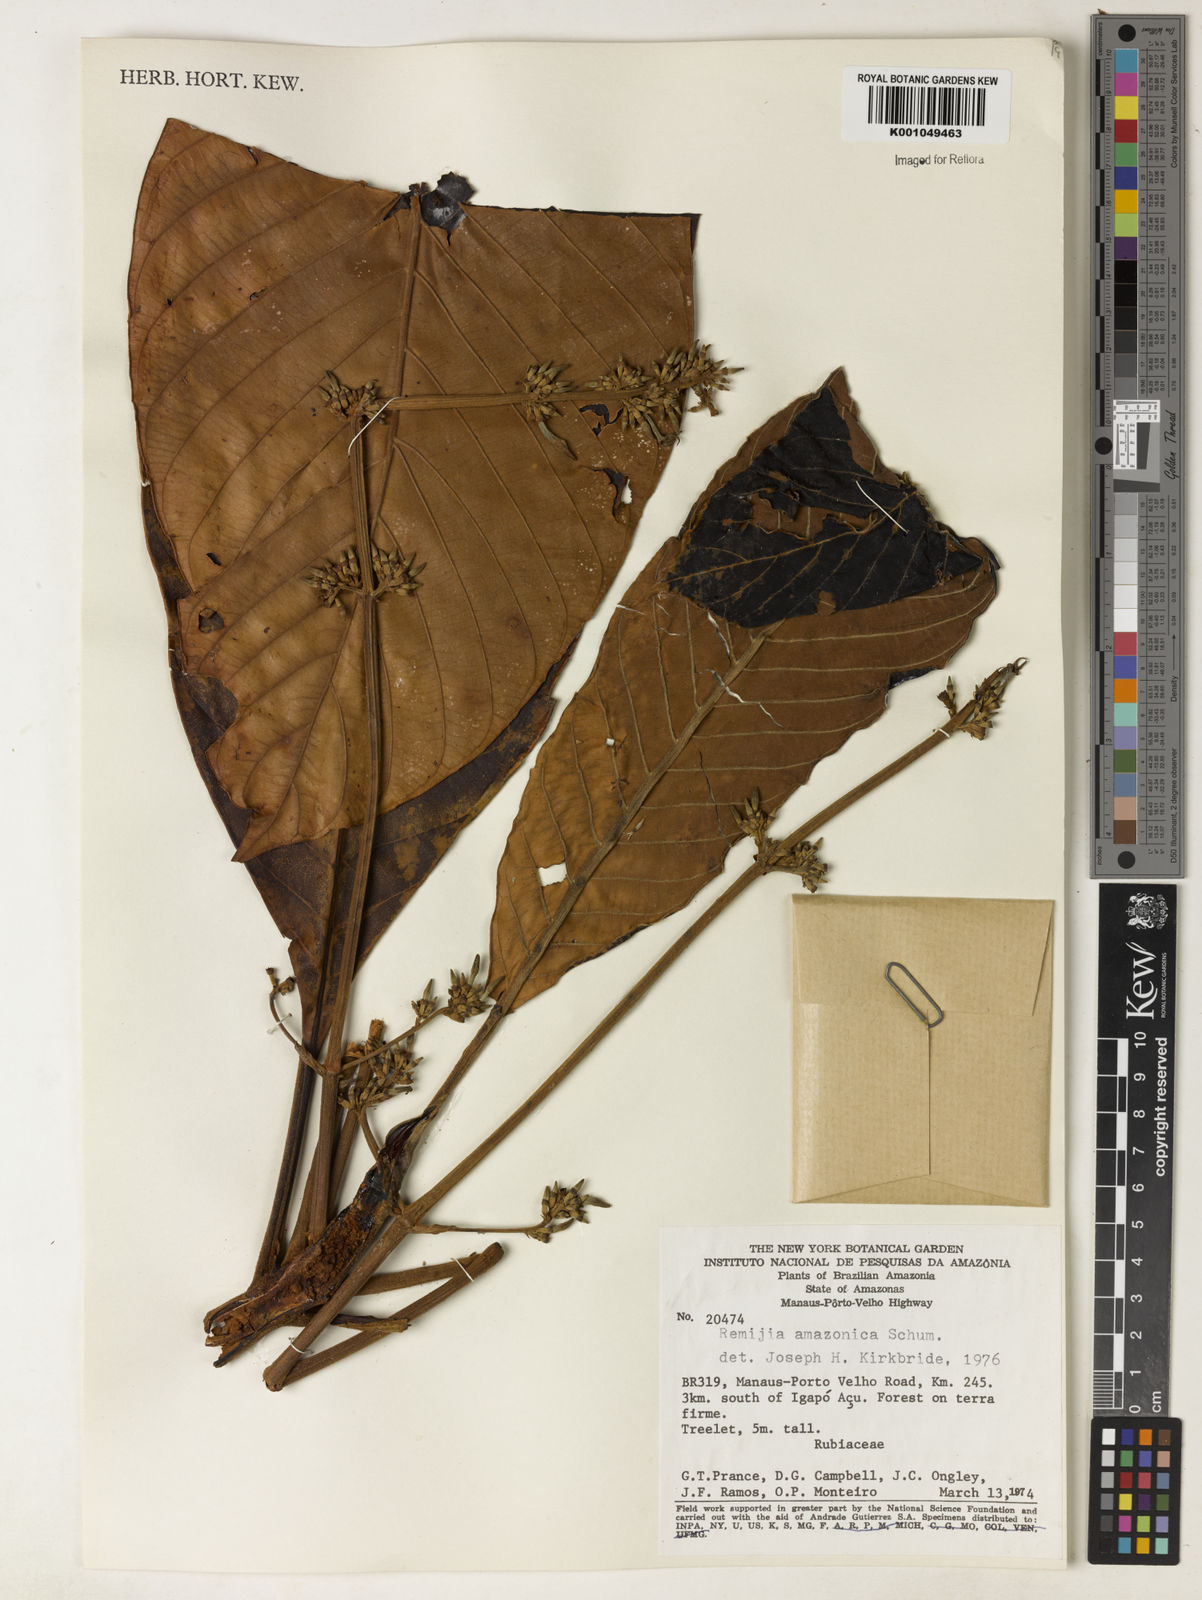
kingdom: Plantae
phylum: Tracheophyta
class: Magnoliopsida
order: Gentianales
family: Rubiaceae
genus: Remijia
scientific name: Remijia amazonica
